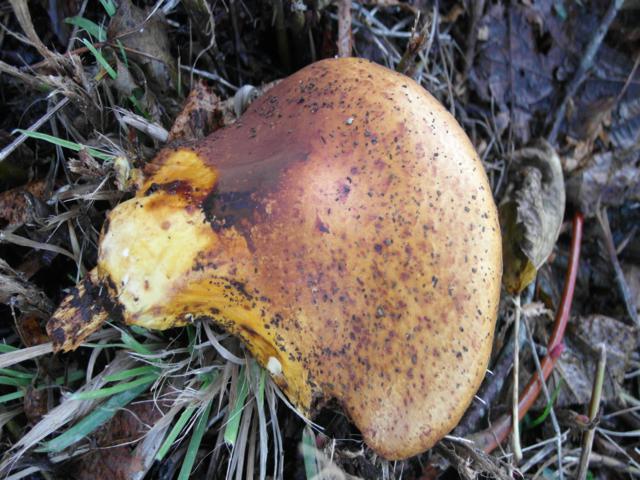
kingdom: Fungi
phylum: Basidiomycota
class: Agaricomycetes
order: Agaricales
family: Strophariaceae
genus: Pholiota
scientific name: Pholiota adiposa
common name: højtsiddende skælhat
